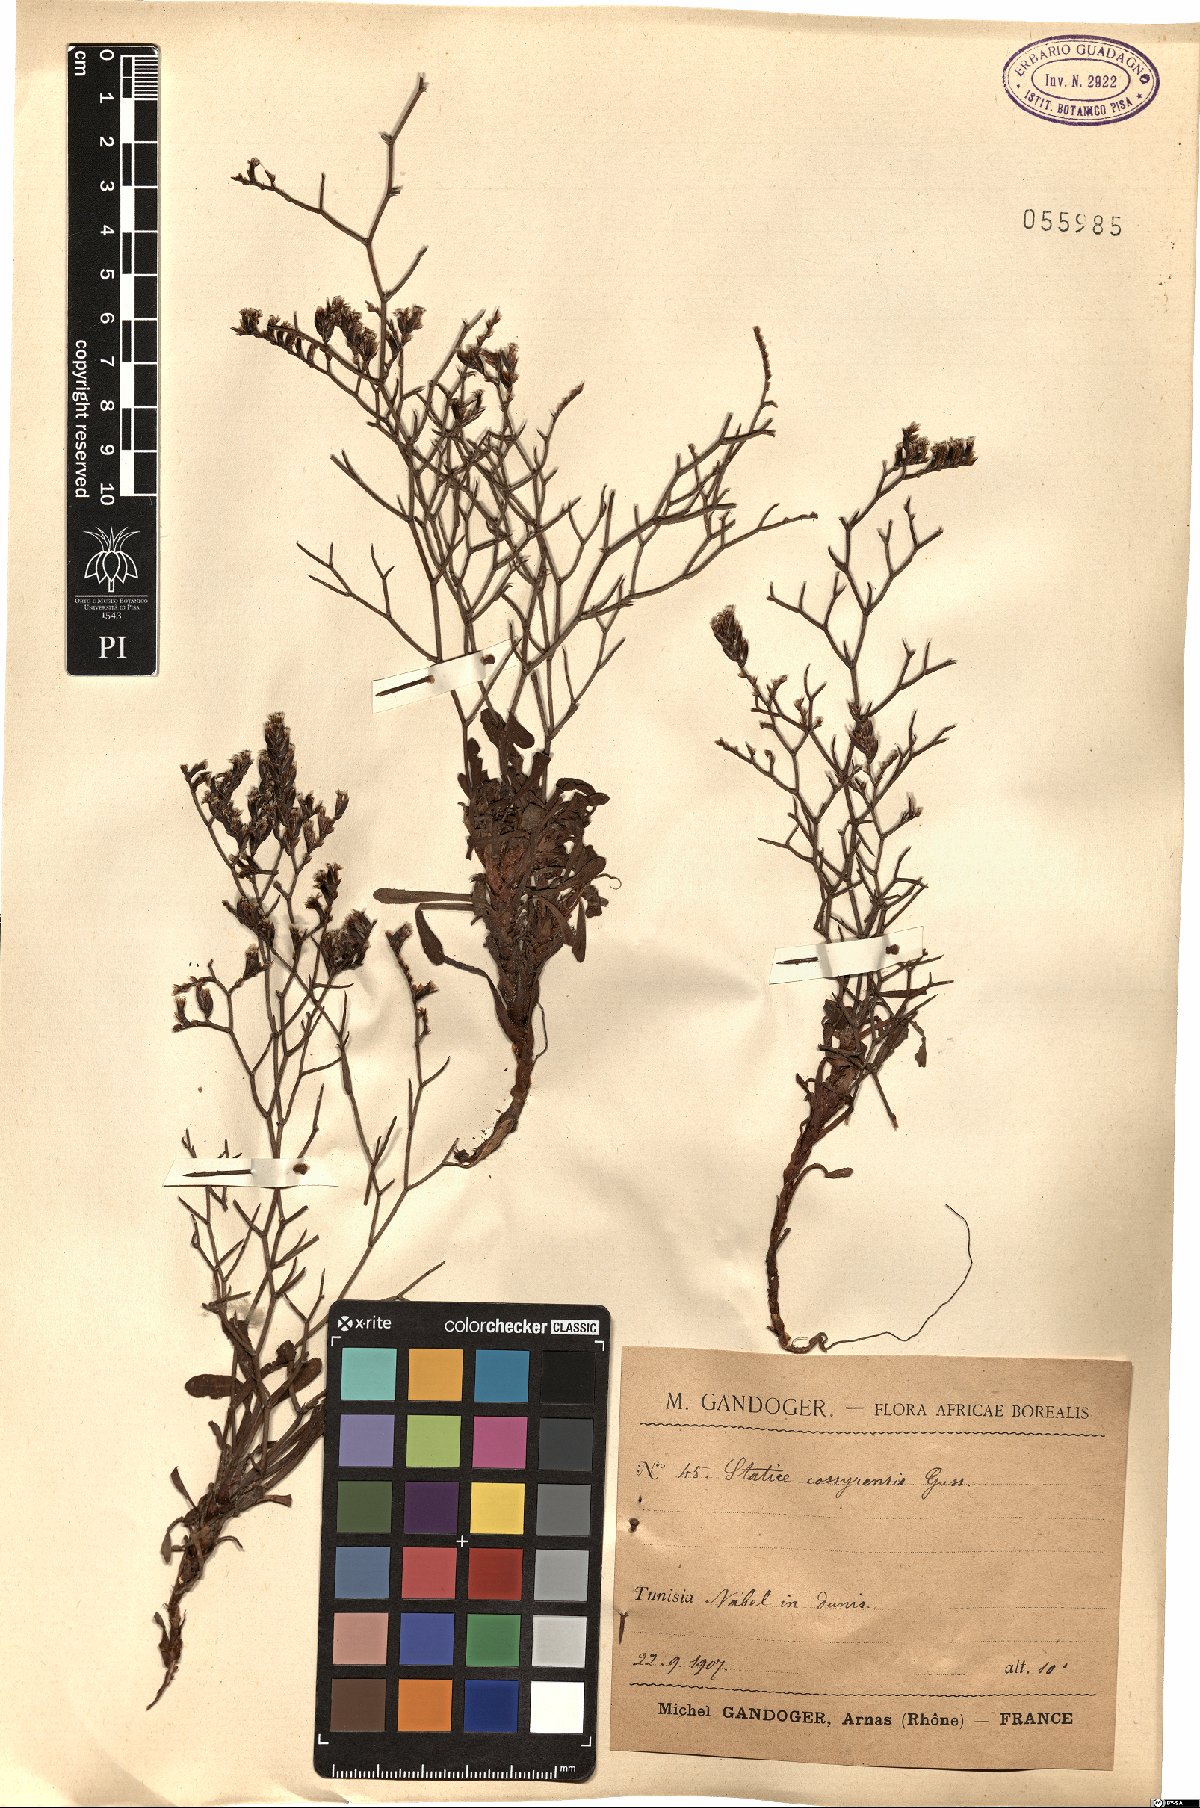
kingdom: Plantae
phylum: Tracheophyta
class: Magnoliopsida
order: Caryophyllales
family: Plumbaginaceae
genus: Limonium
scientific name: Limonium cosyrense
